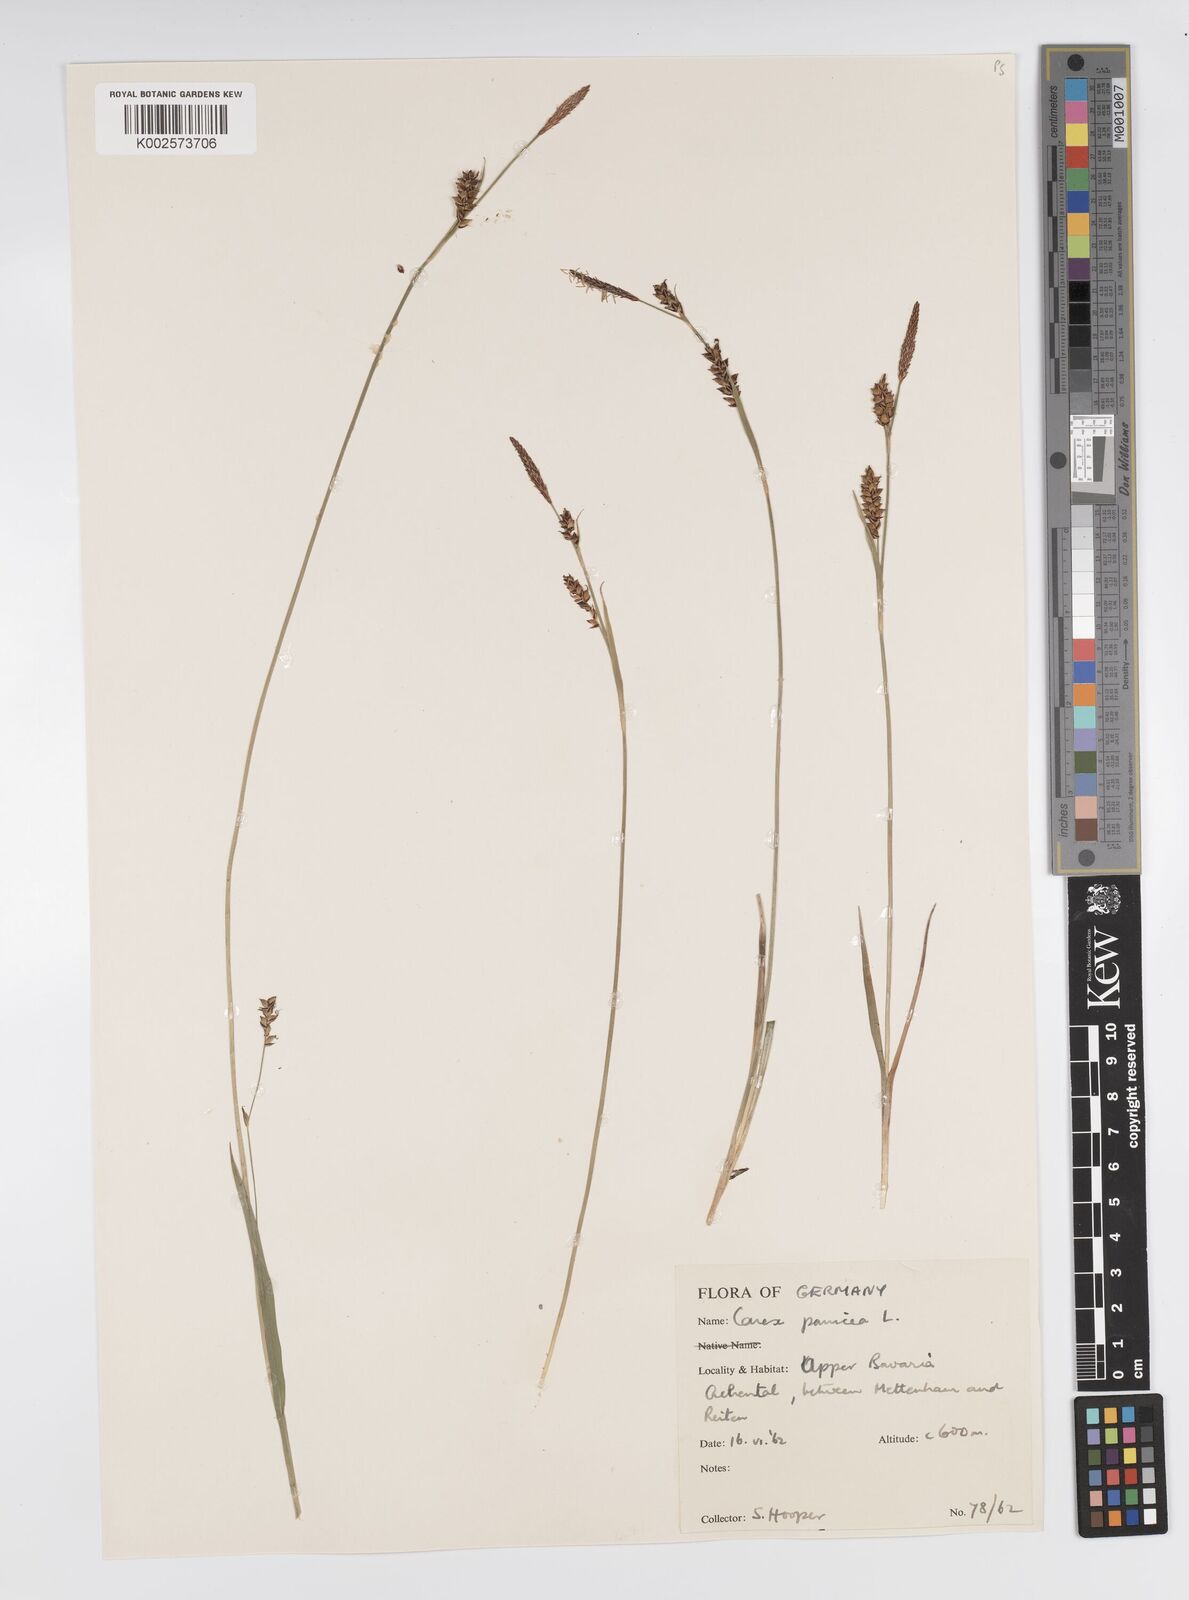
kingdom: Plantae
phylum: Tracheophyta
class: Liliopsida
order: Poales
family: Cyperaceae
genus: Carex
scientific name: Carex panicea
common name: Carnation sedge
